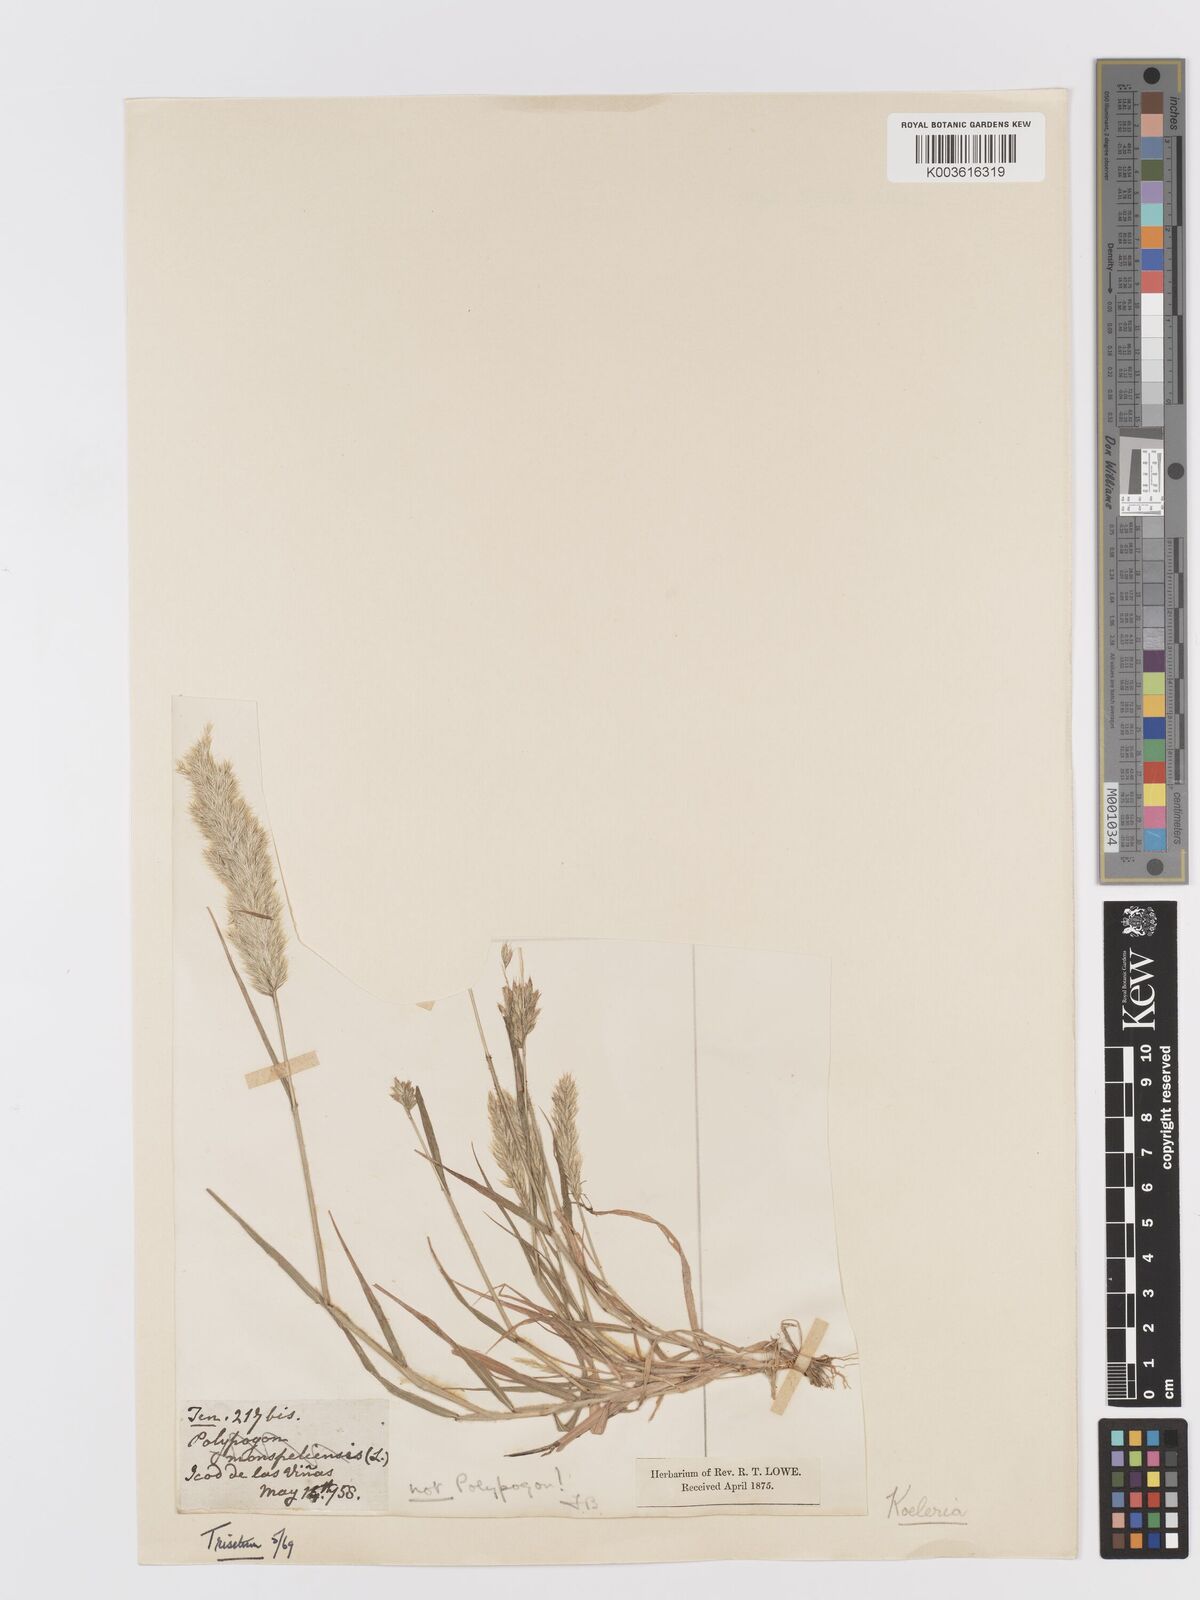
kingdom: Plantae
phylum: Tracheophyta
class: Liliopsida
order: Poales
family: Poaceae
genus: Trisetaria
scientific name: Trisetaria panicea
